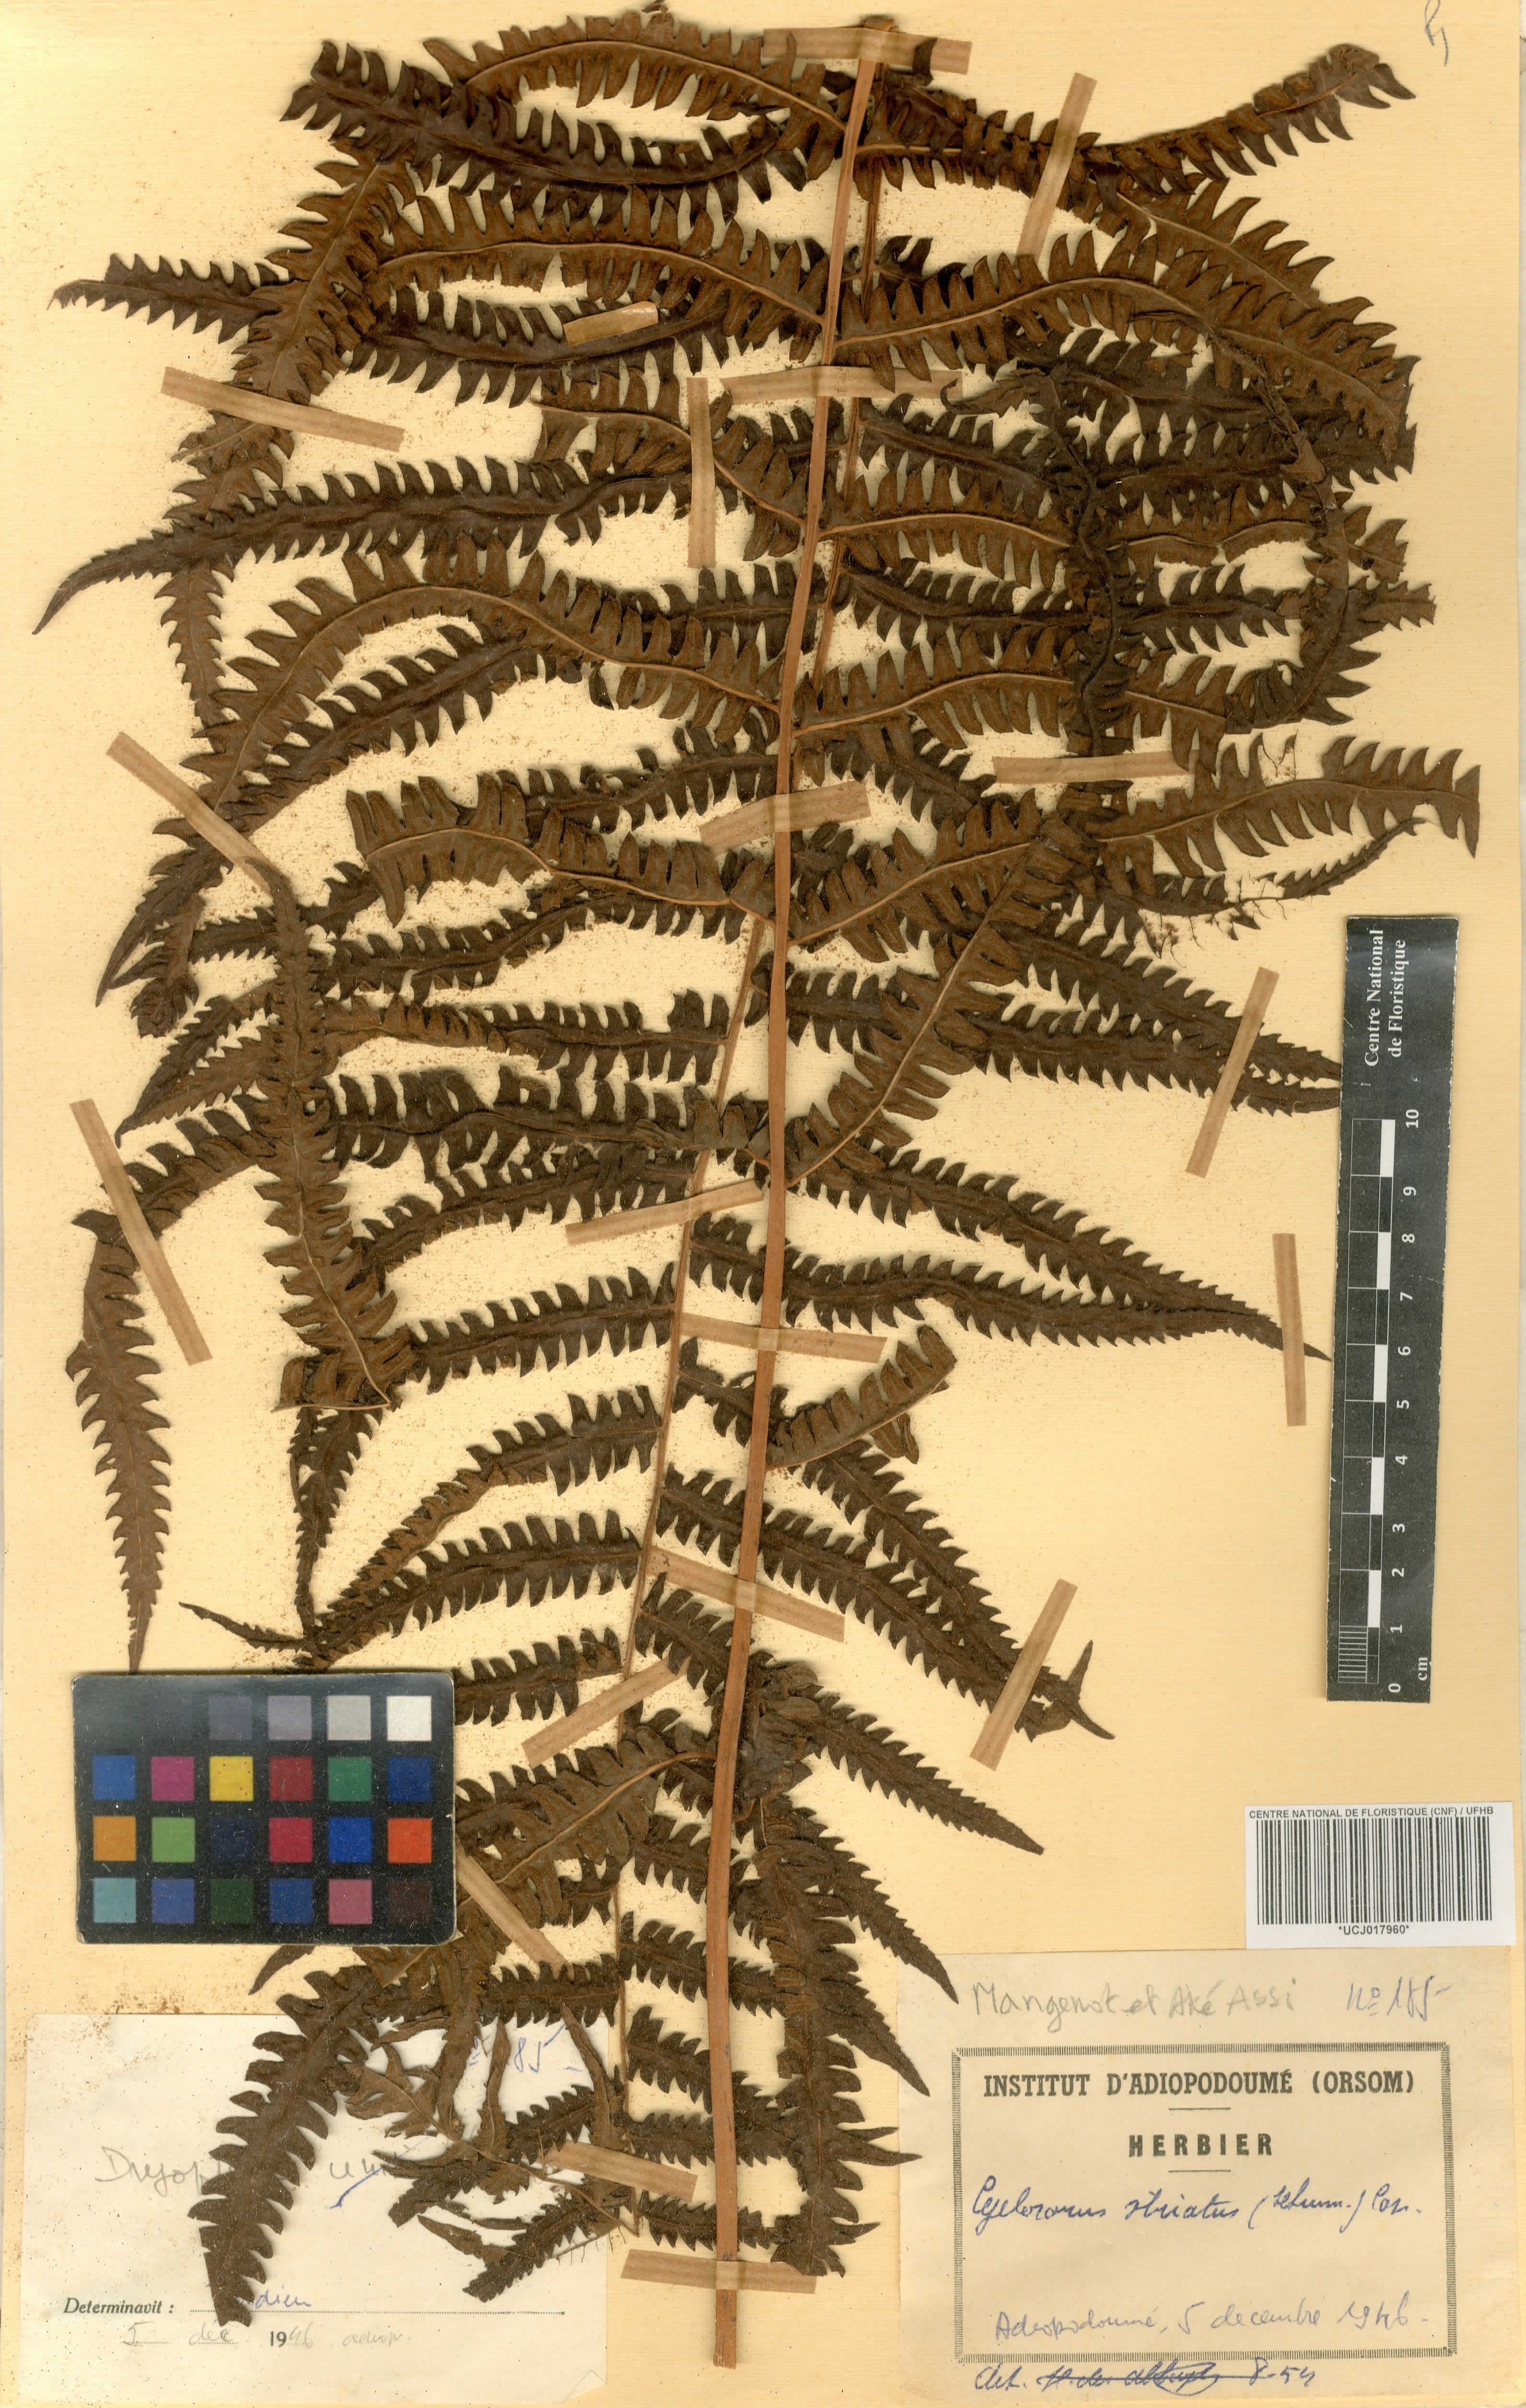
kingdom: Plantae
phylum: Tracheophyta
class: Polypodiopsida
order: Polypodiales
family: Thelypteridaceae
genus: Cyclosorus
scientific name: Cyclosorus striatus
